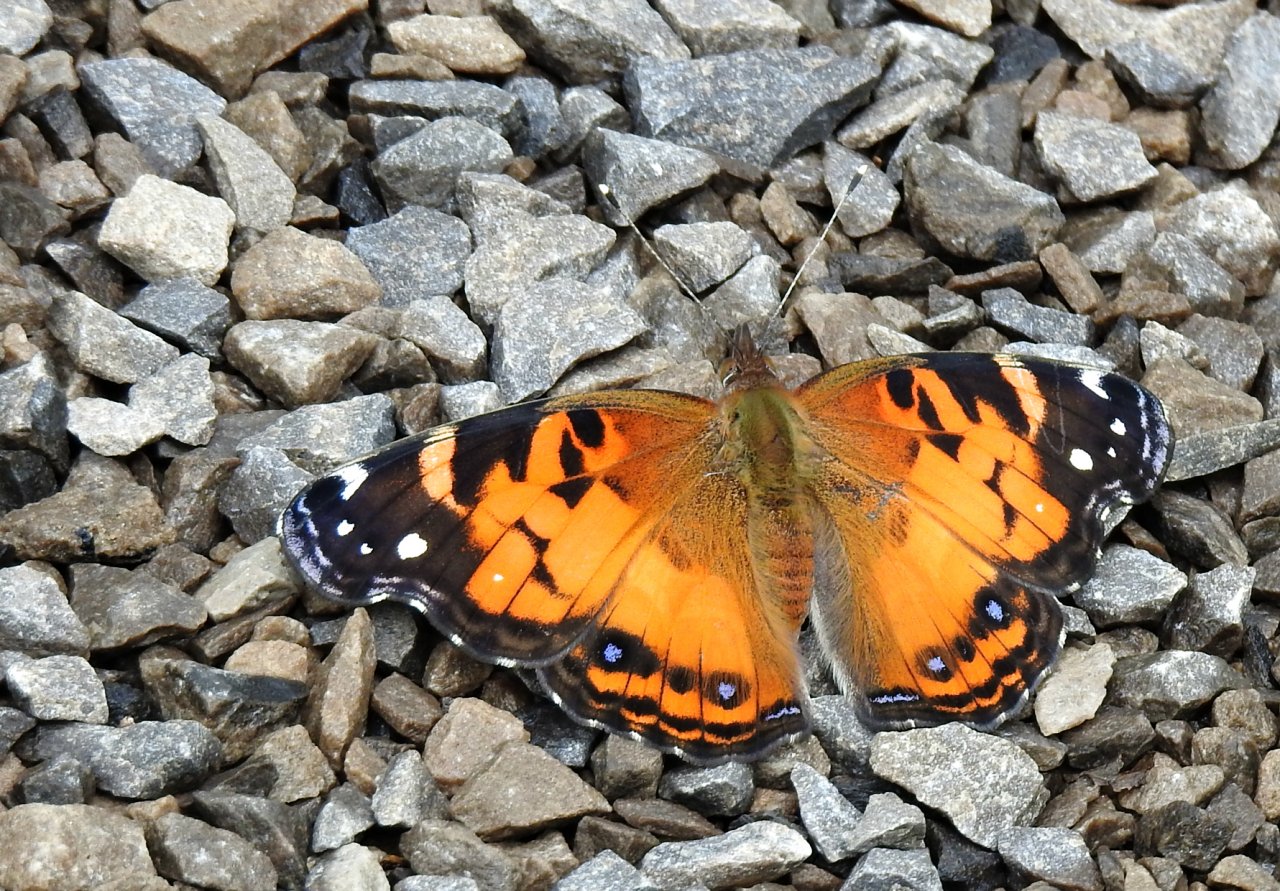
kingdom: Animalia
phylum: Arthropoda
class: Insecta
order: Lepidoptera
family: Nymphalidae
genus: Vanessa
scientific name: Vanessa virginiensis
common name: American Lady
